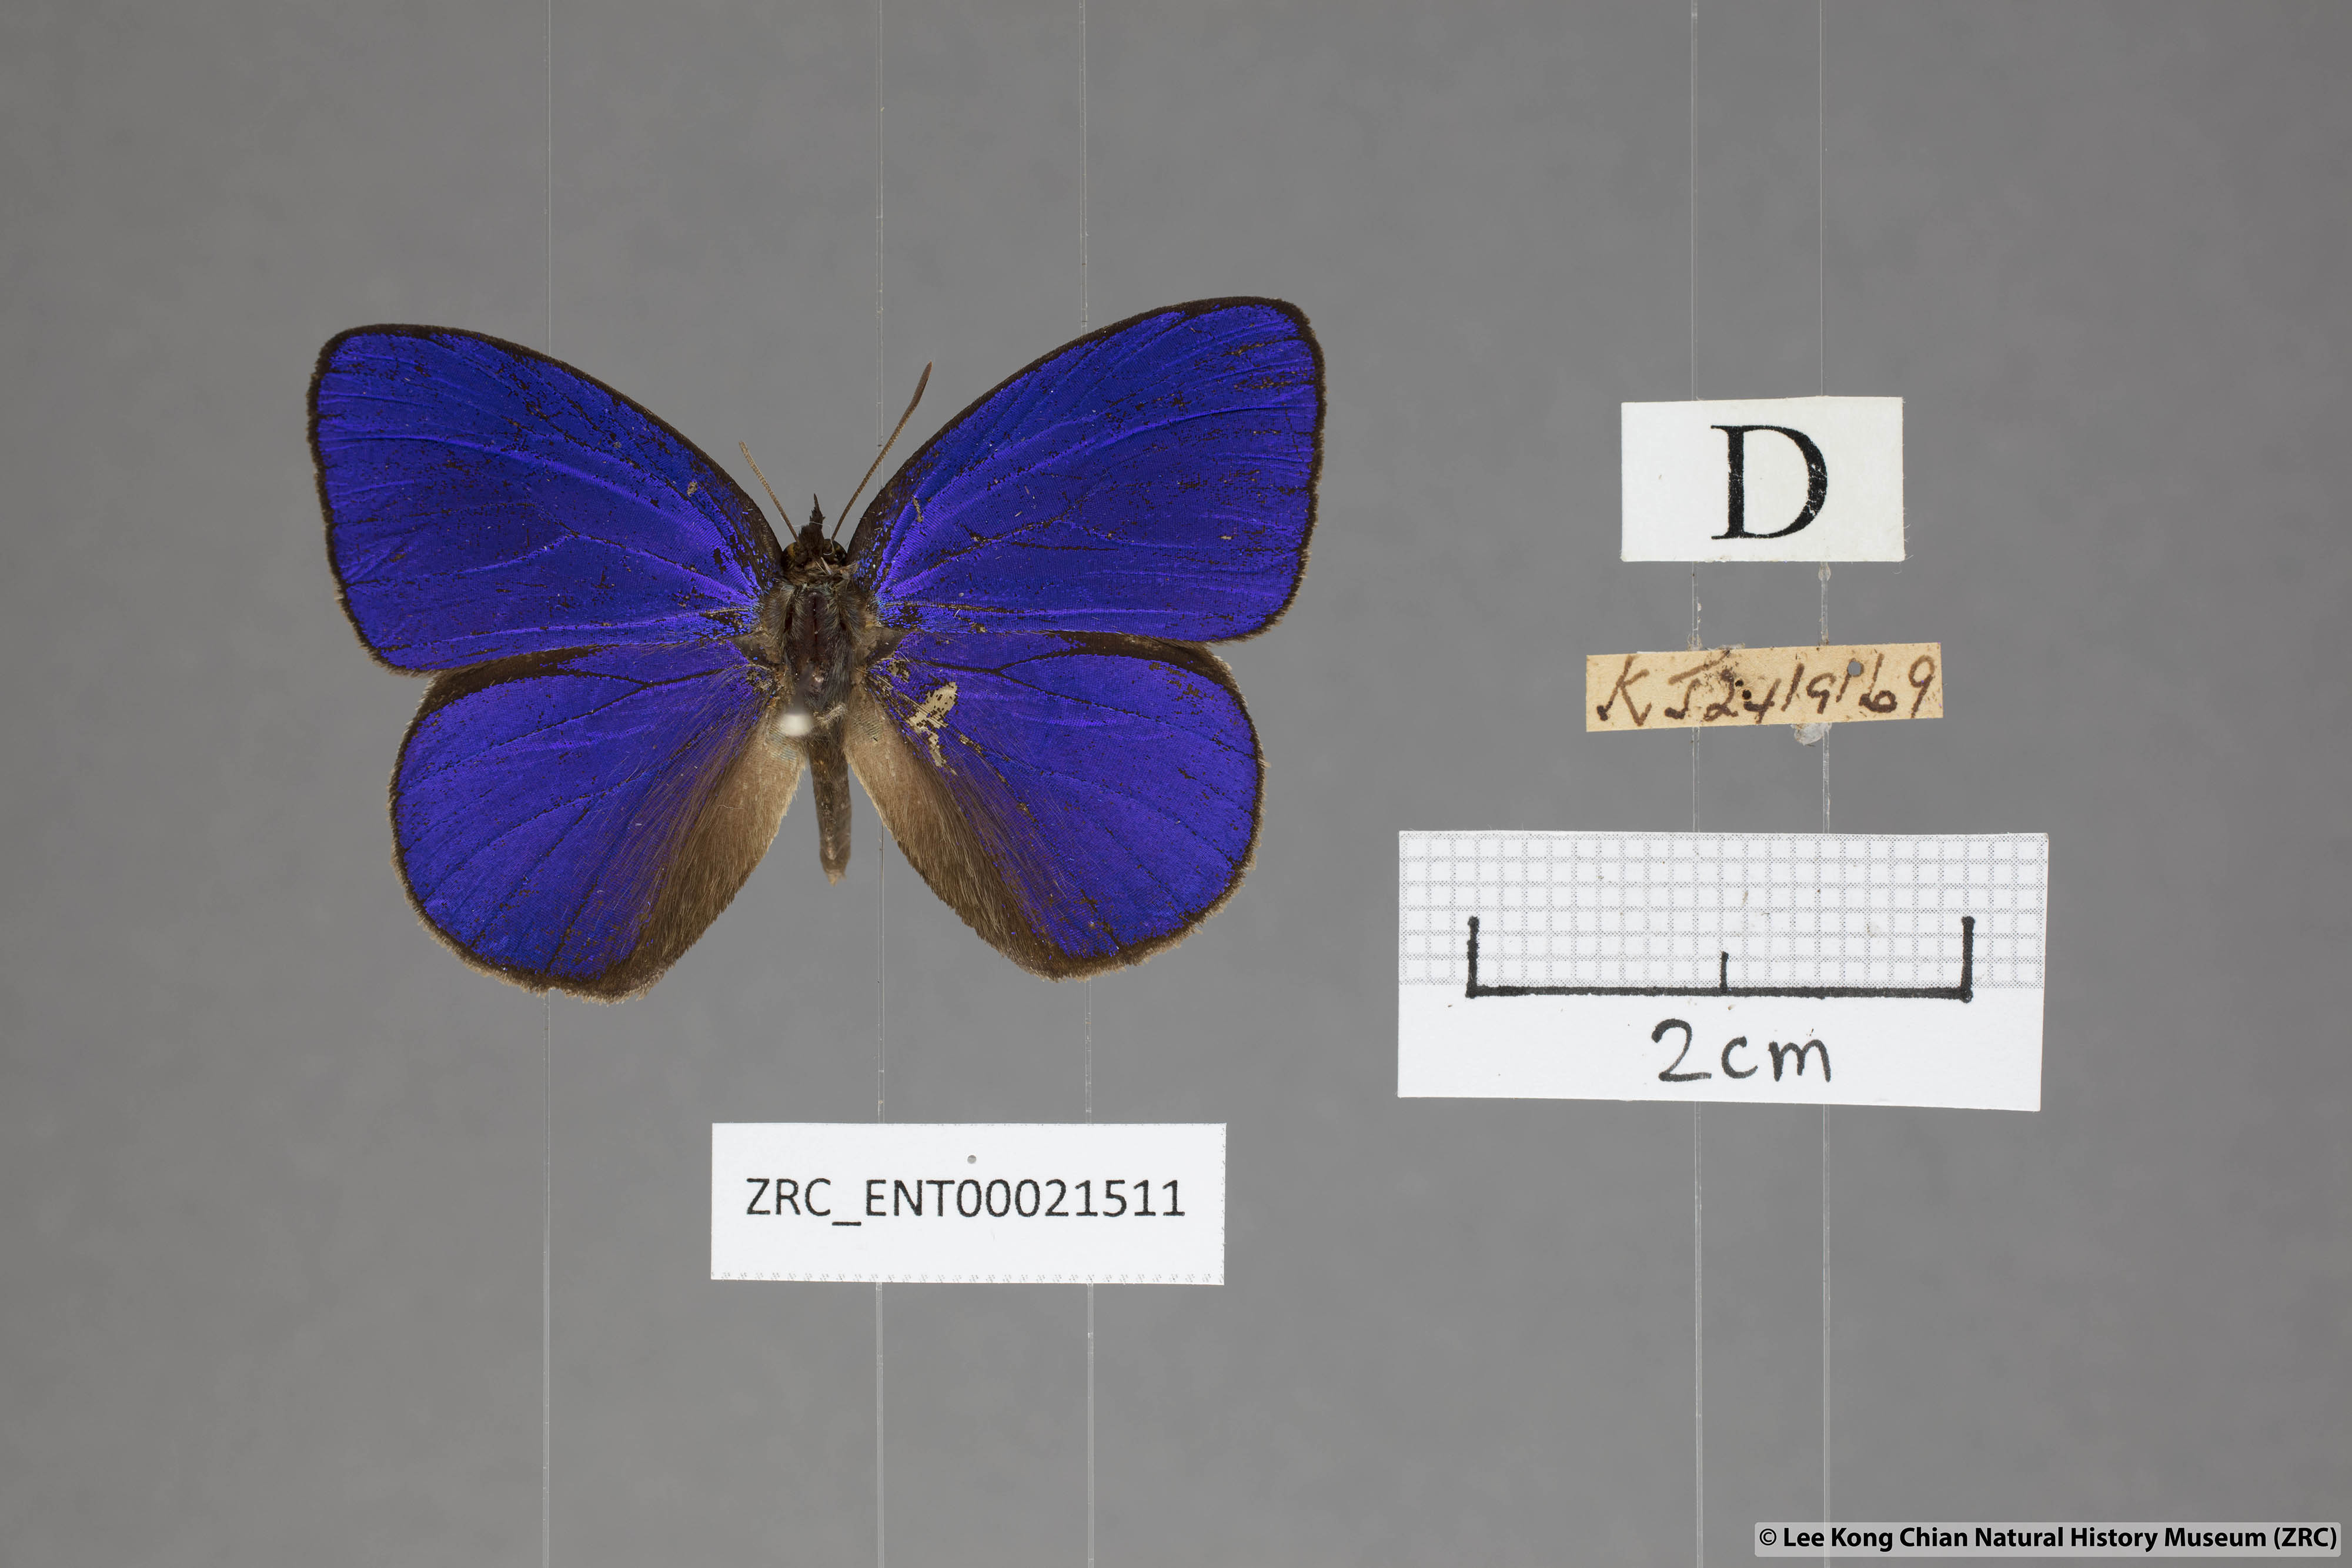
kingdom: Animalia
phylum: Arthropoda
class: Insecta
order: Lepidoptera
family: Lycaenidae
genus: Flos
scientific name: Flos
